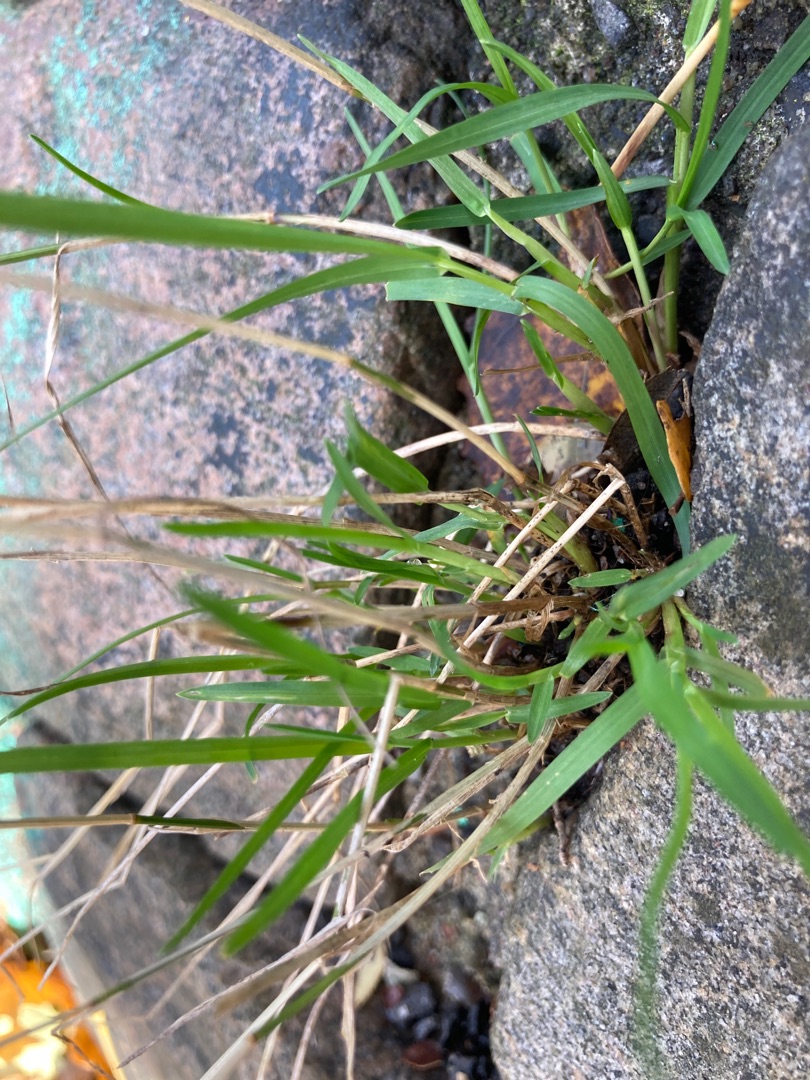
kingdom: Plantae
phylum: Tracheophyta
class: Liliopsida
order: Poales
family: Poaceae
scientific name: Poaceae
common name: Græsfamilien
